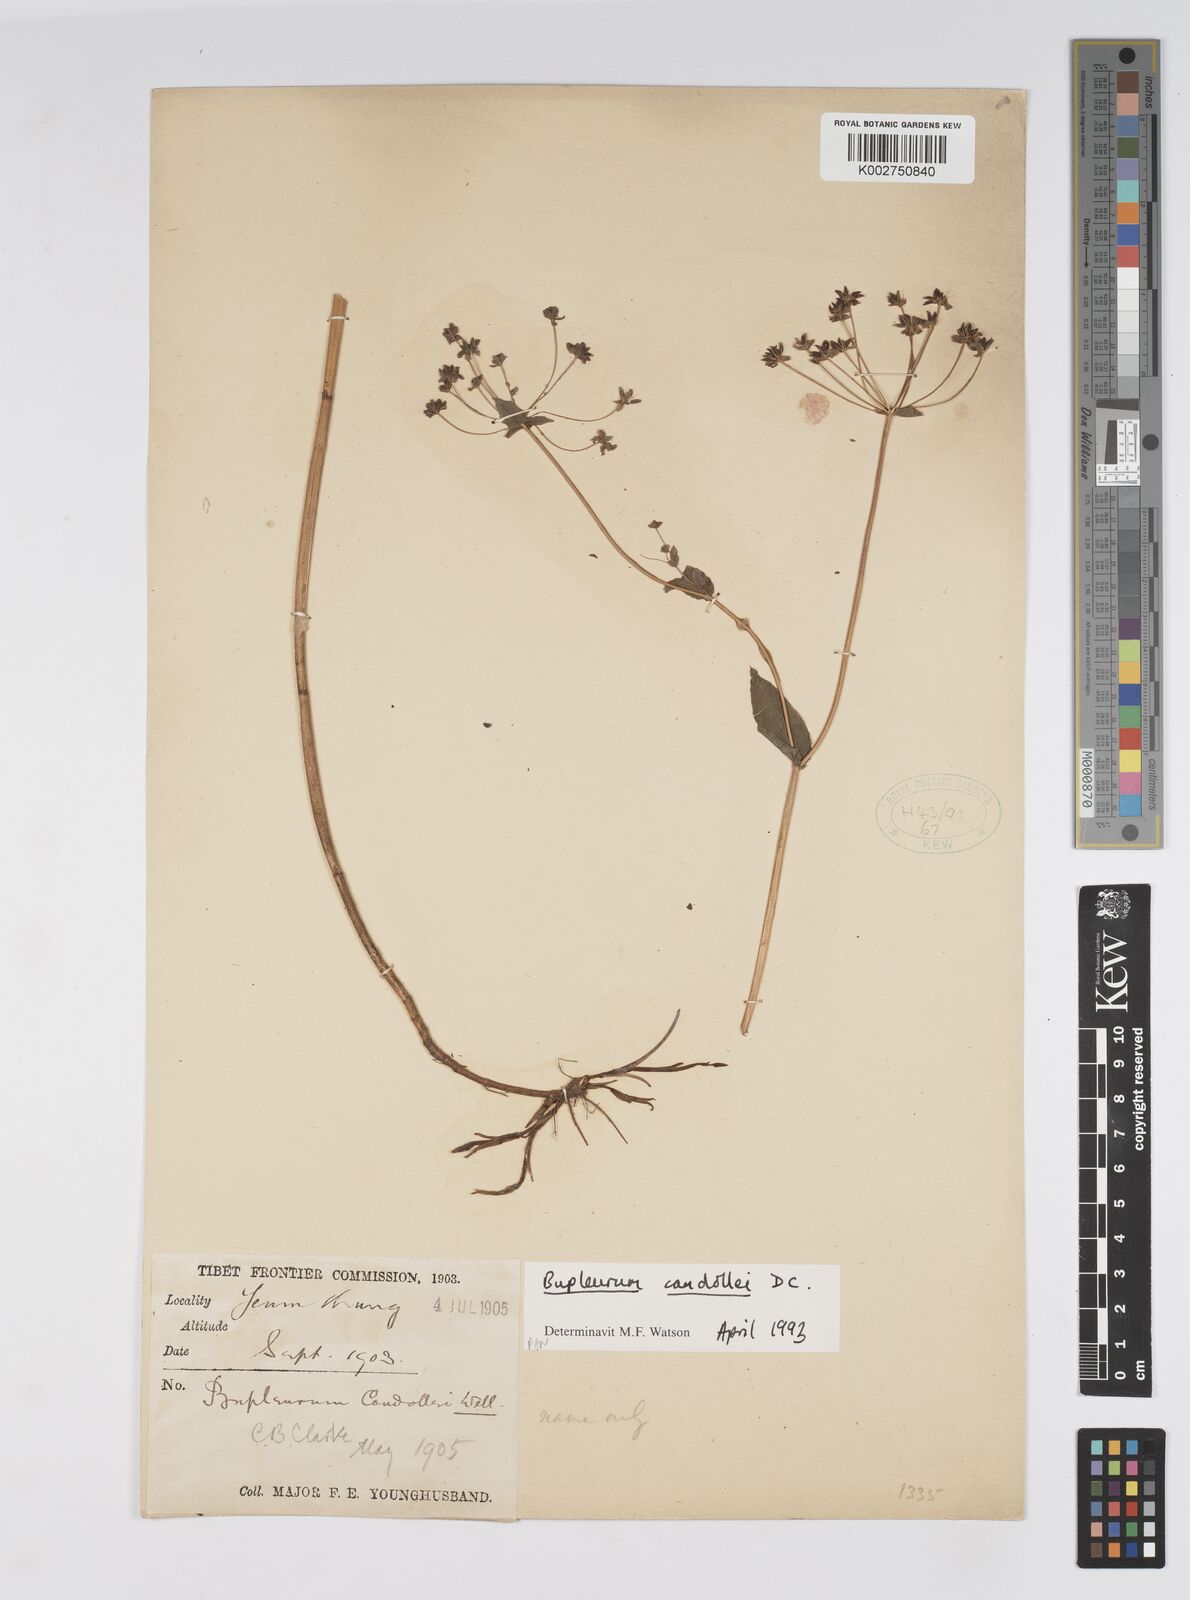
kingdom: Plantae
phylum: Tracheophyta
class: Magnoliopsida
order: Apiales
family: Apiaceae
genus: Bupleurum
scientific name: Bupleurum candollei
